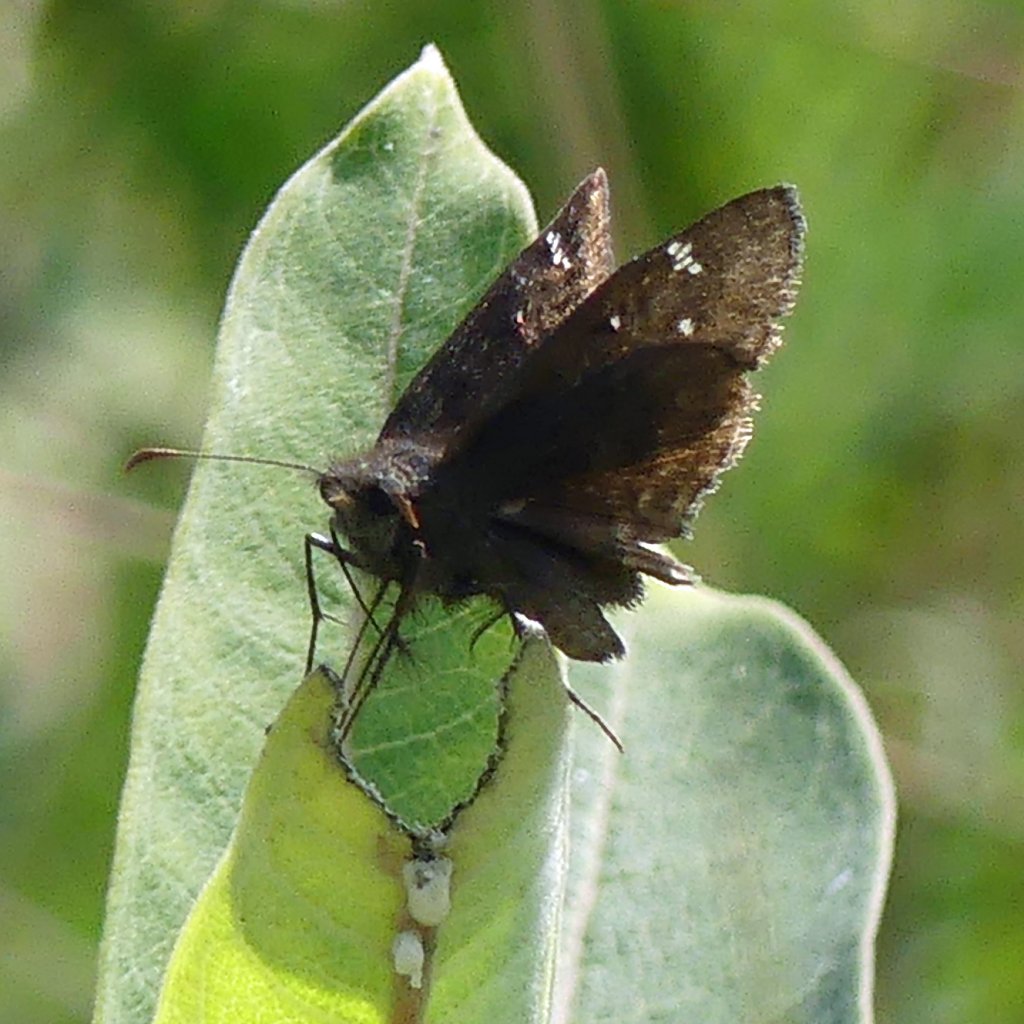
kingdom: Animalia
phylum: Arthropoda
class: Insecta
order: Lepidoptera
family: Hesperiidae
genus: Gesta
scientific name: Gesta
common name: Wild Indigo Duskywing
